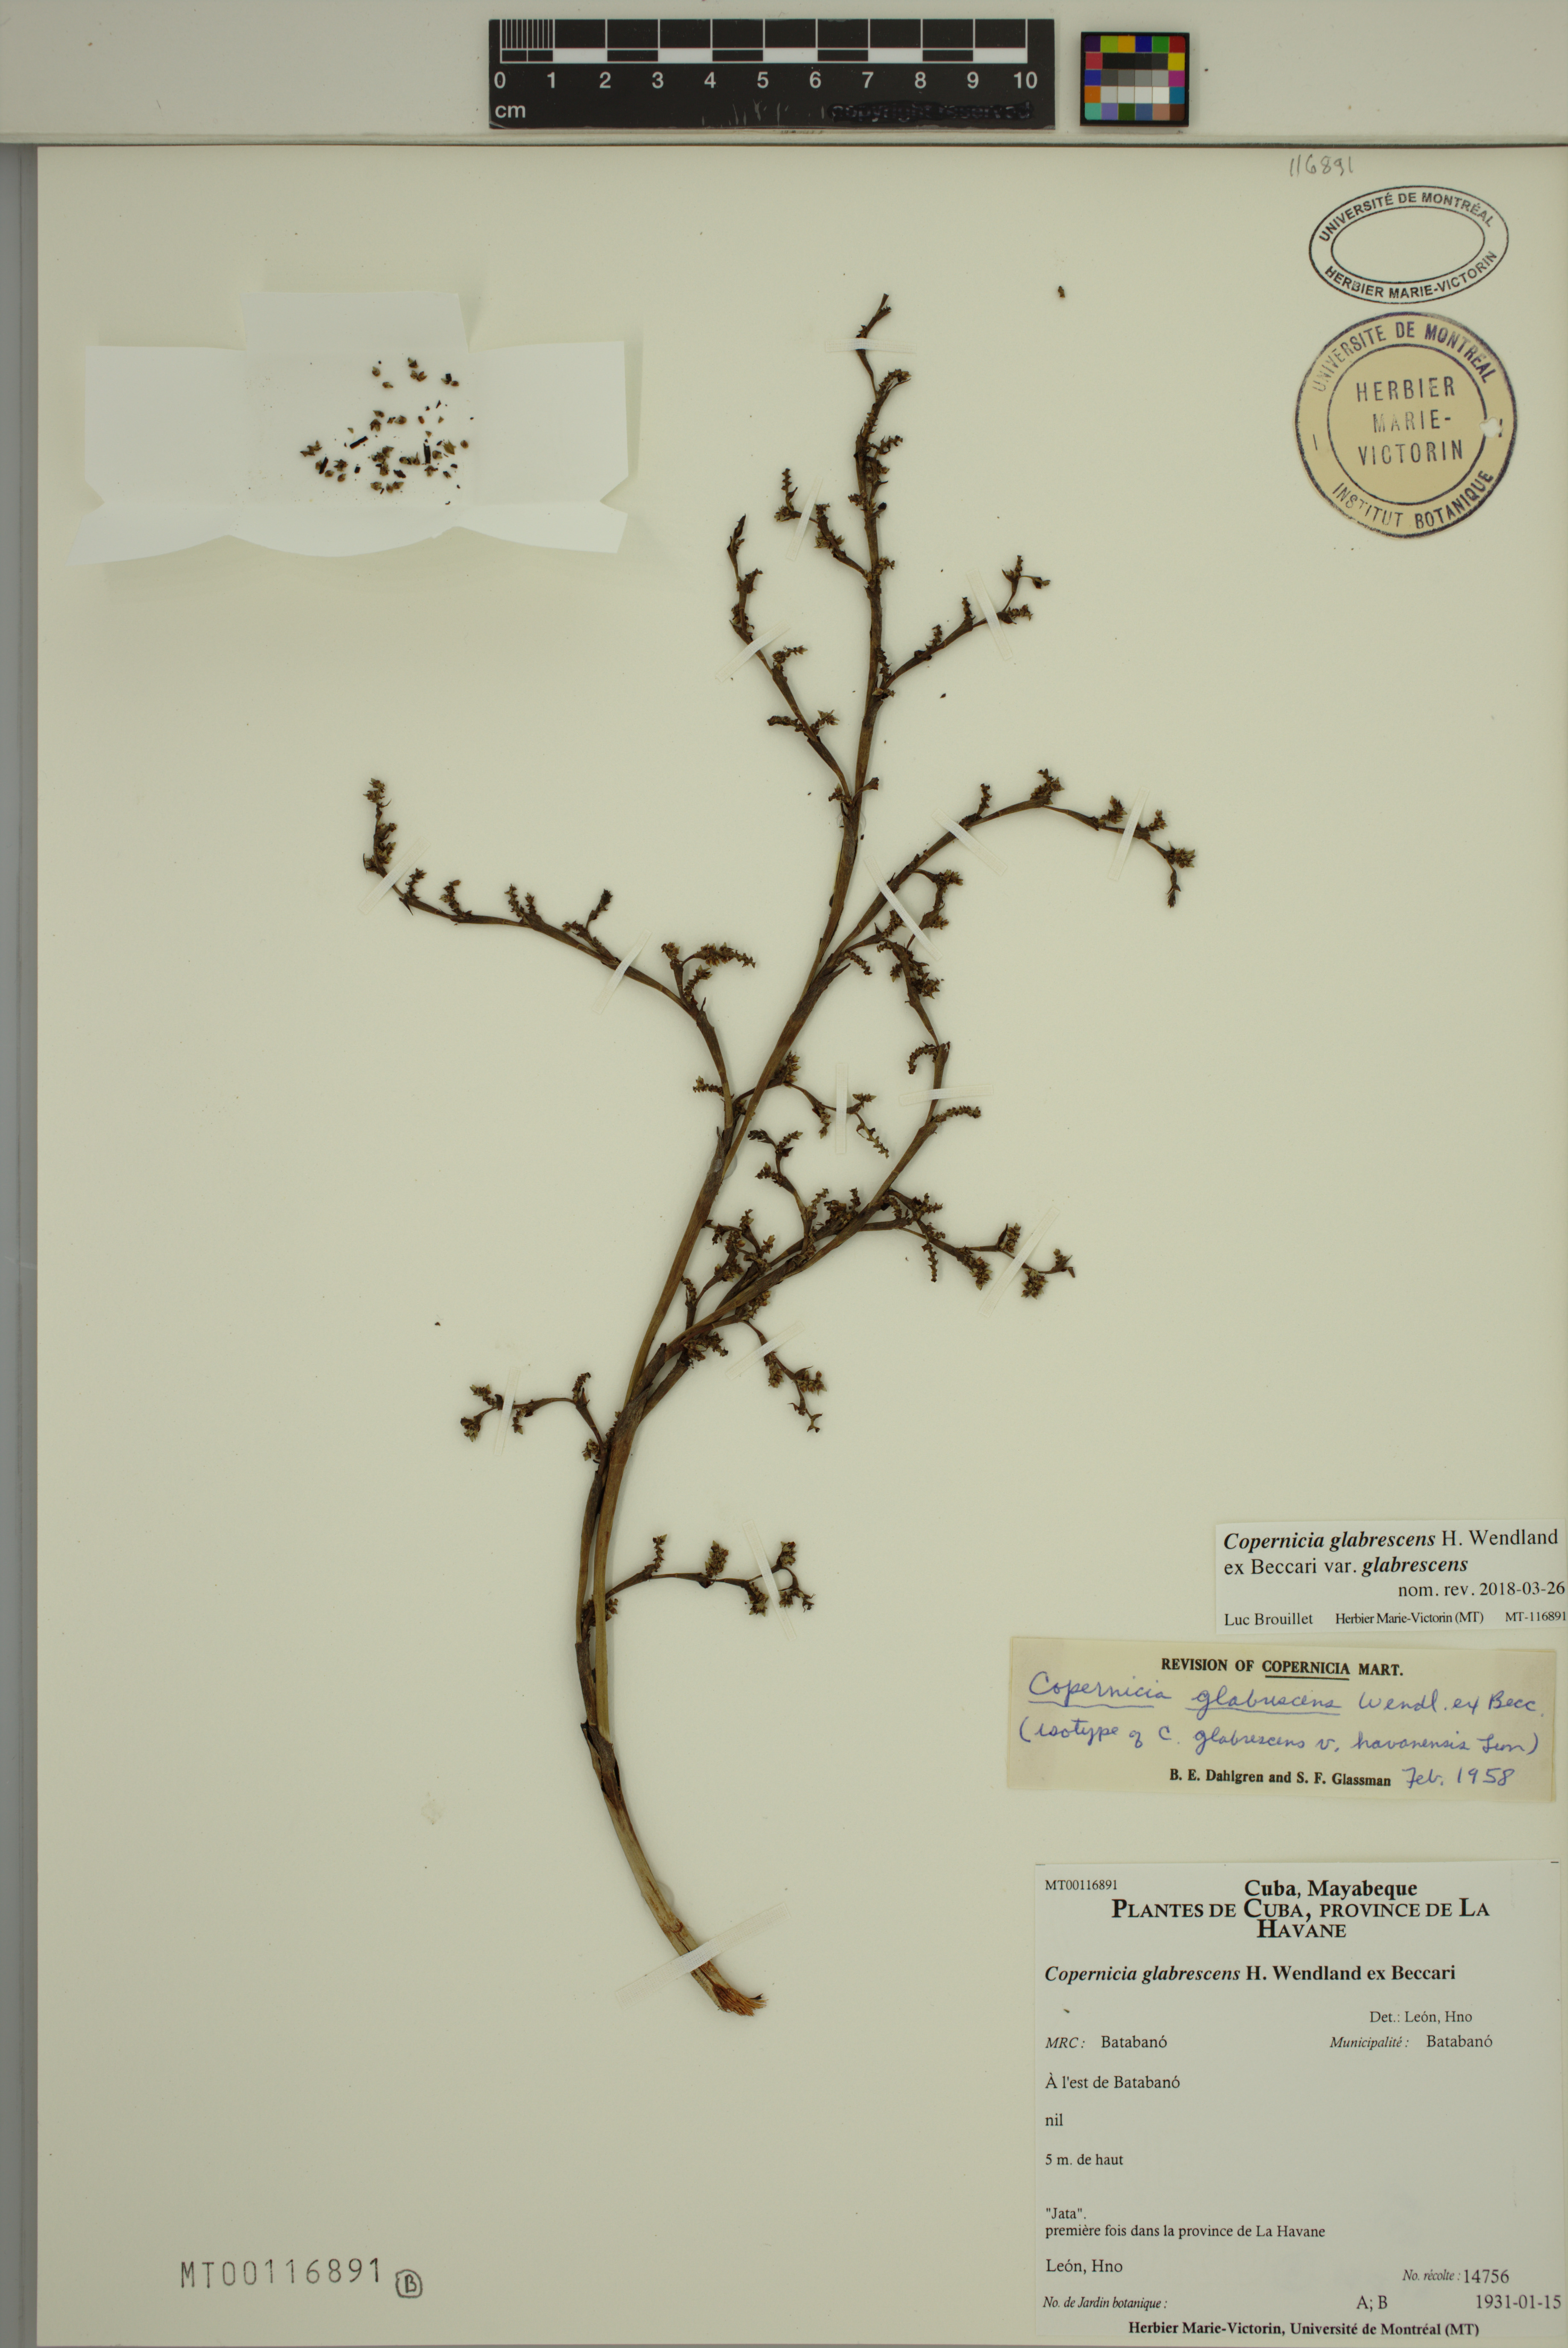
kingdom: Plantae
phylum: Tracheophyta
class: Liliopsida
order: Arecales
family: Arecaceae
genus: Copernicia
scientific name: Copernicia glabrescens
